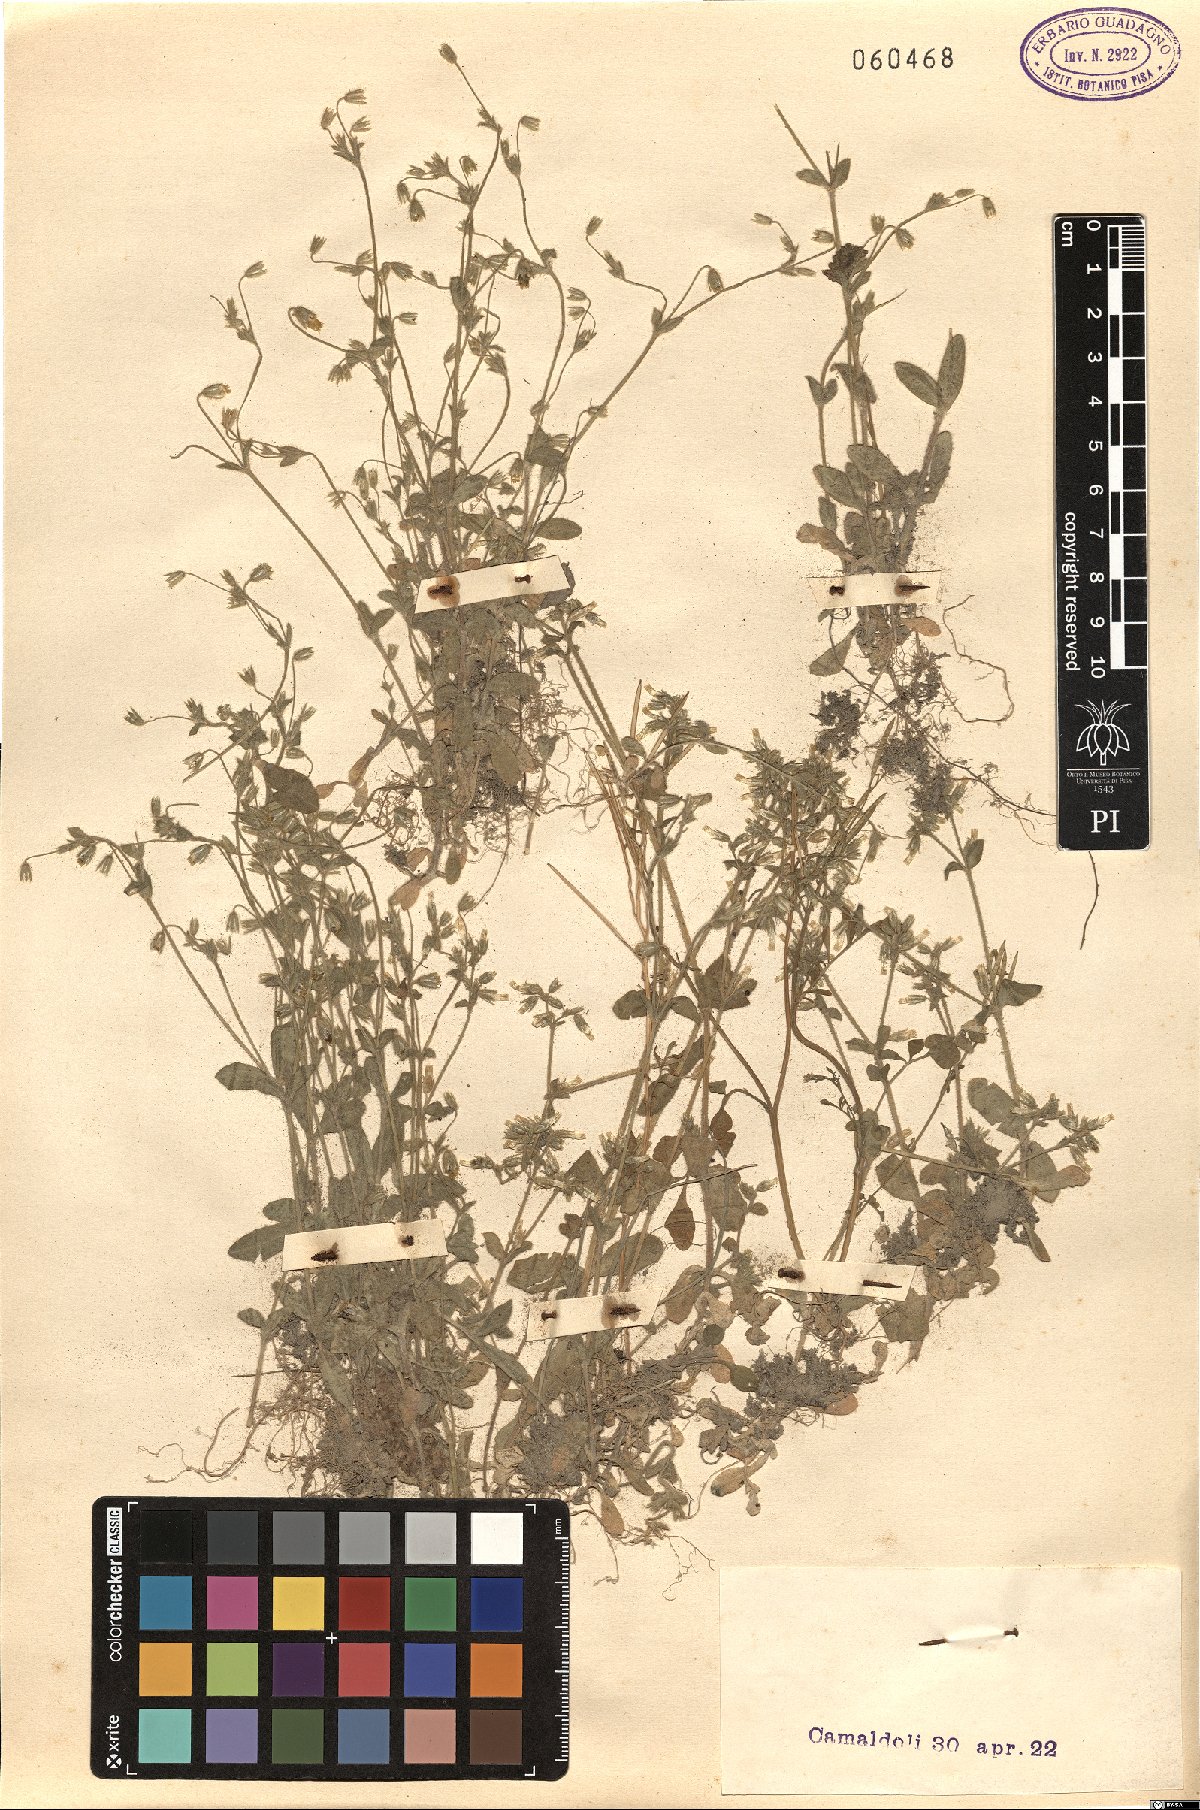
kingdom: Plantae
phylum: Tracheophyta
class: Magnoliopsida
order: Caryophyllales
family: Caryophyllaceae
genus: Cerastium
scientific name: Cerastium
